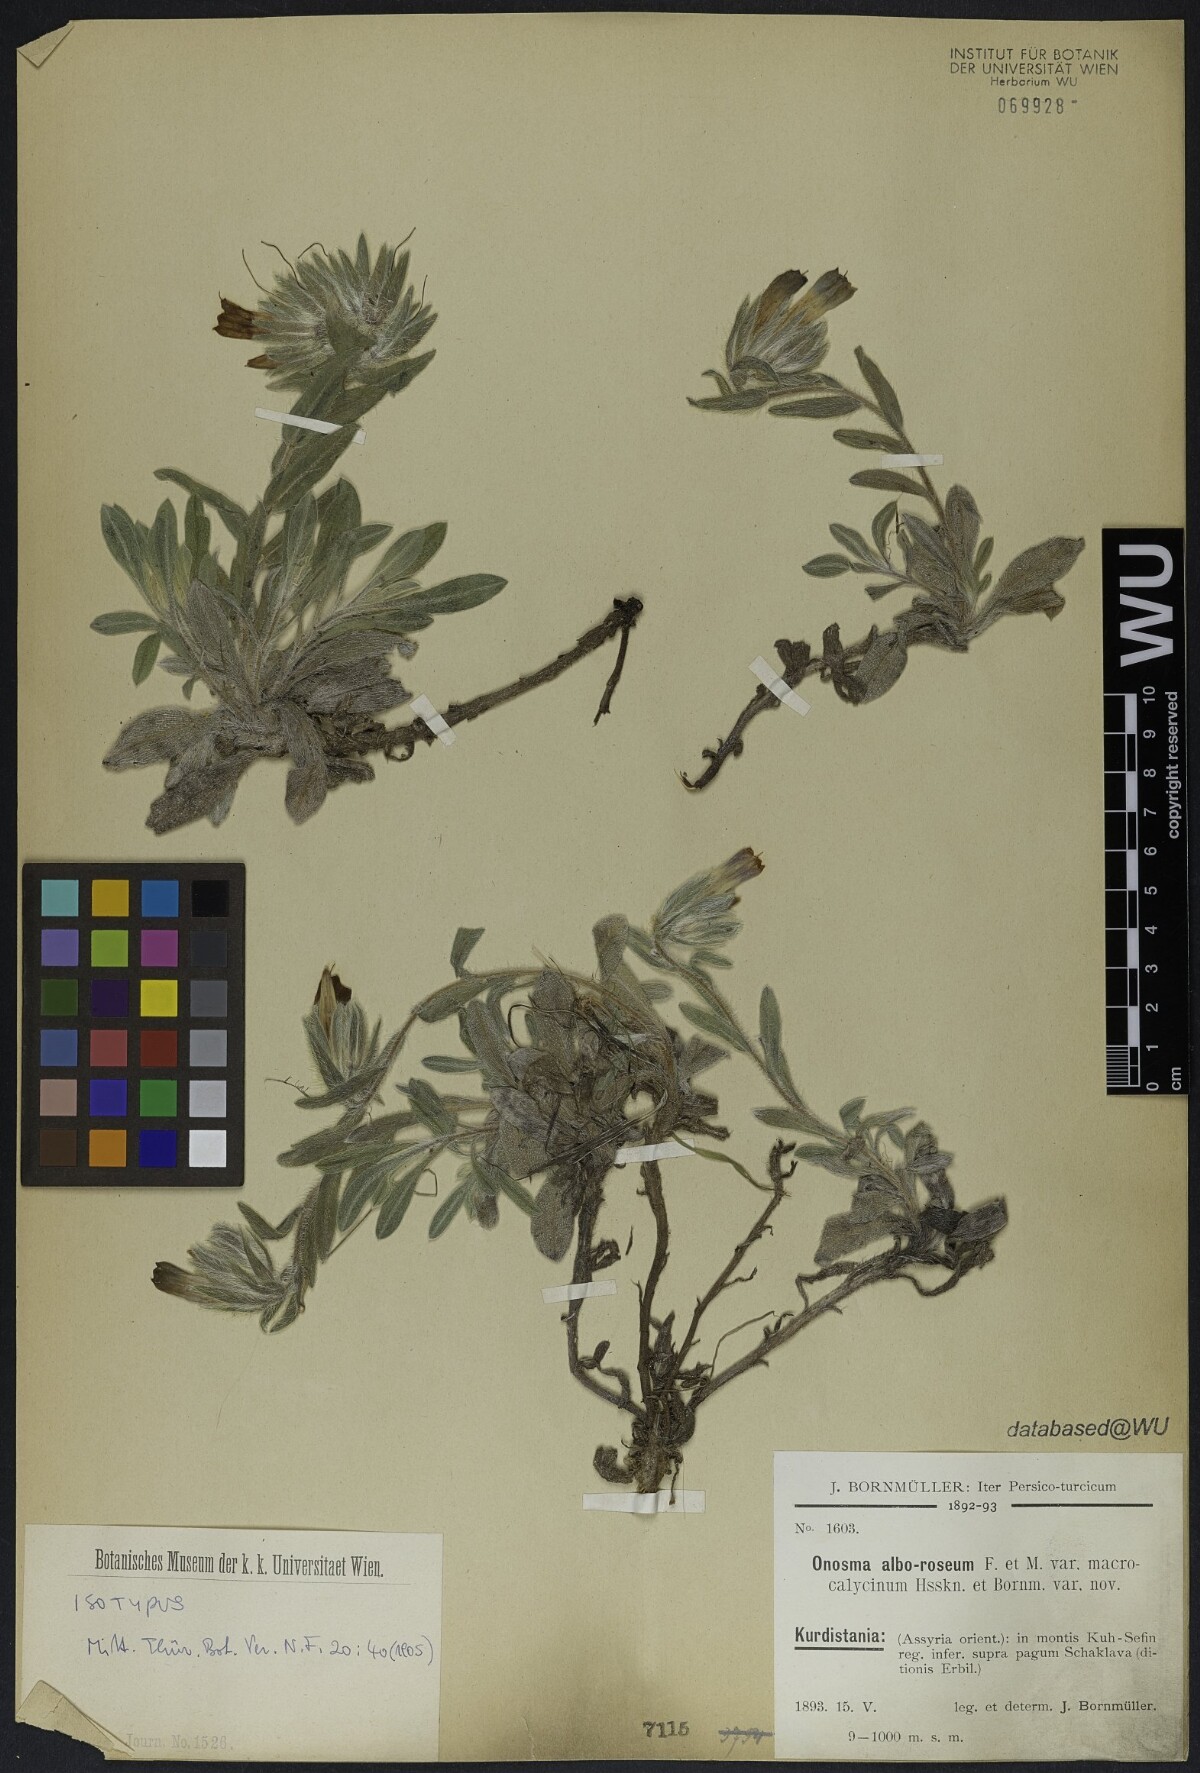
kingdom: Plantae
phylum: Tracheophyta
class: Magnoliopsida
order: Boraginales
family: Boraginaceae
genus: Onosma
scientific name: Onosma alborosea
